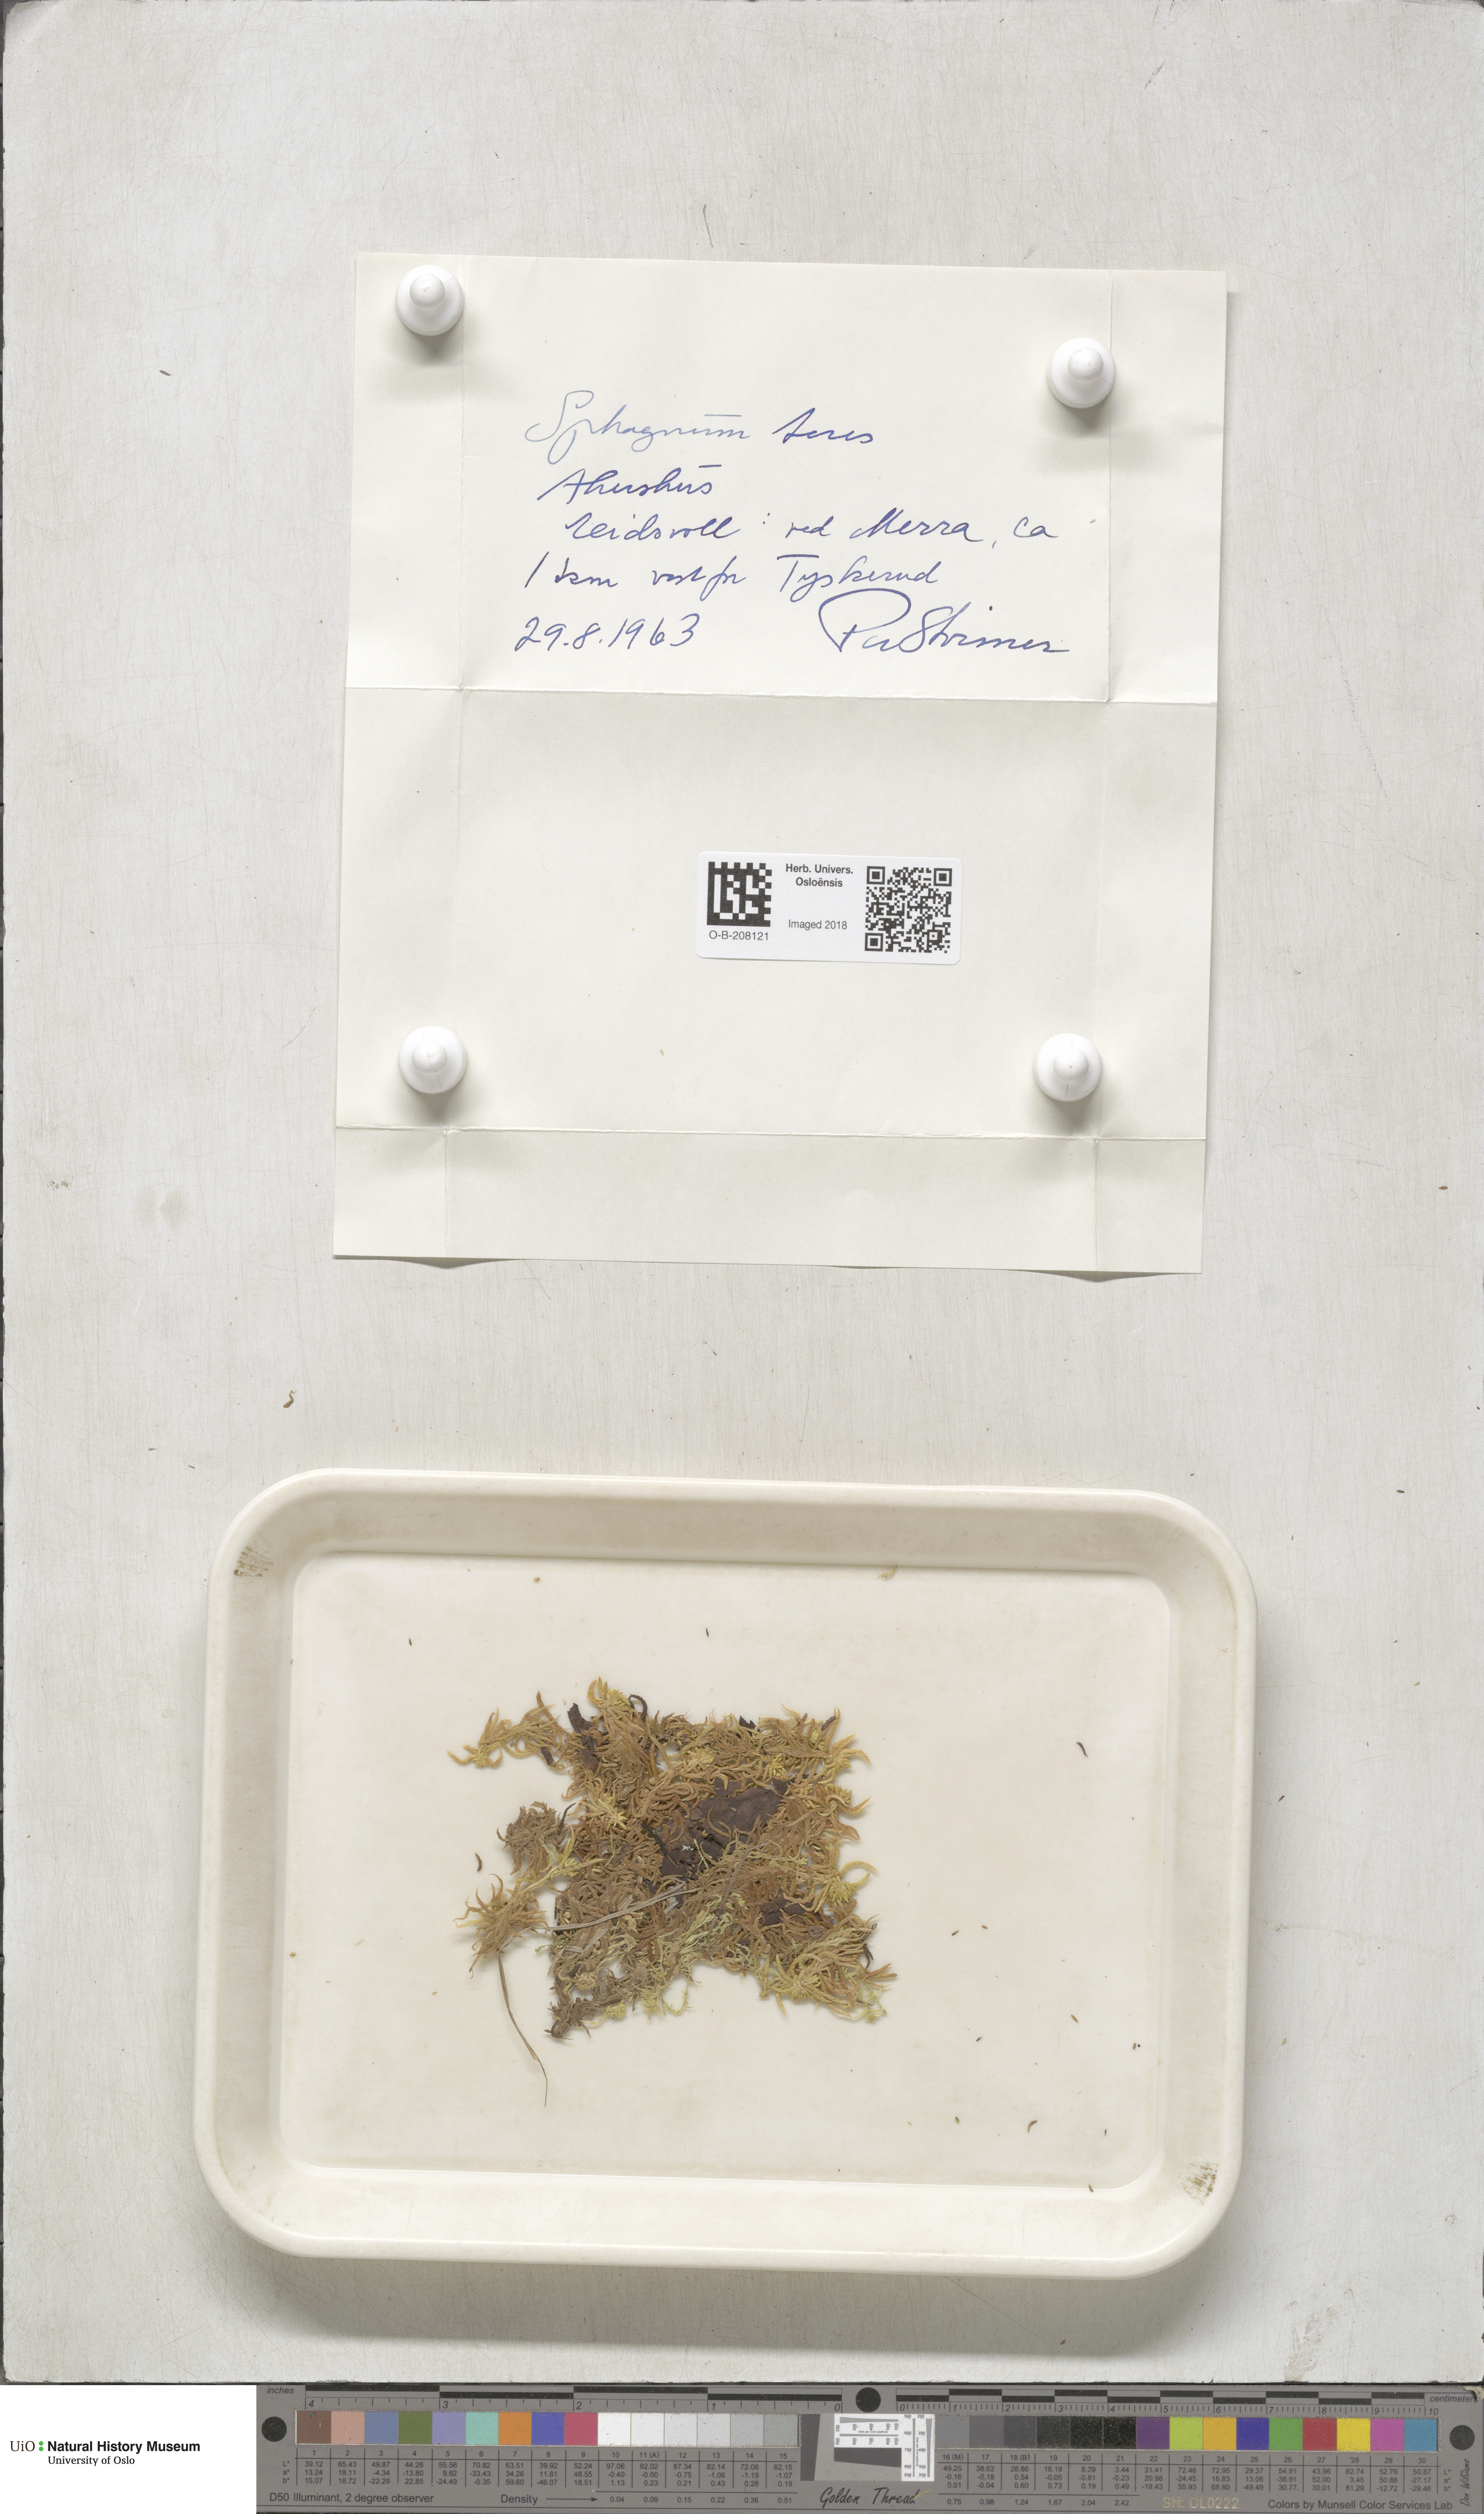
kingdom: Plantae
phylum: Bryophyta
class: Sphagnopsida
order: Sphagnales
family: Sphagnaceae
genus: Sphagnum
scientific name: Sphagnum teres
